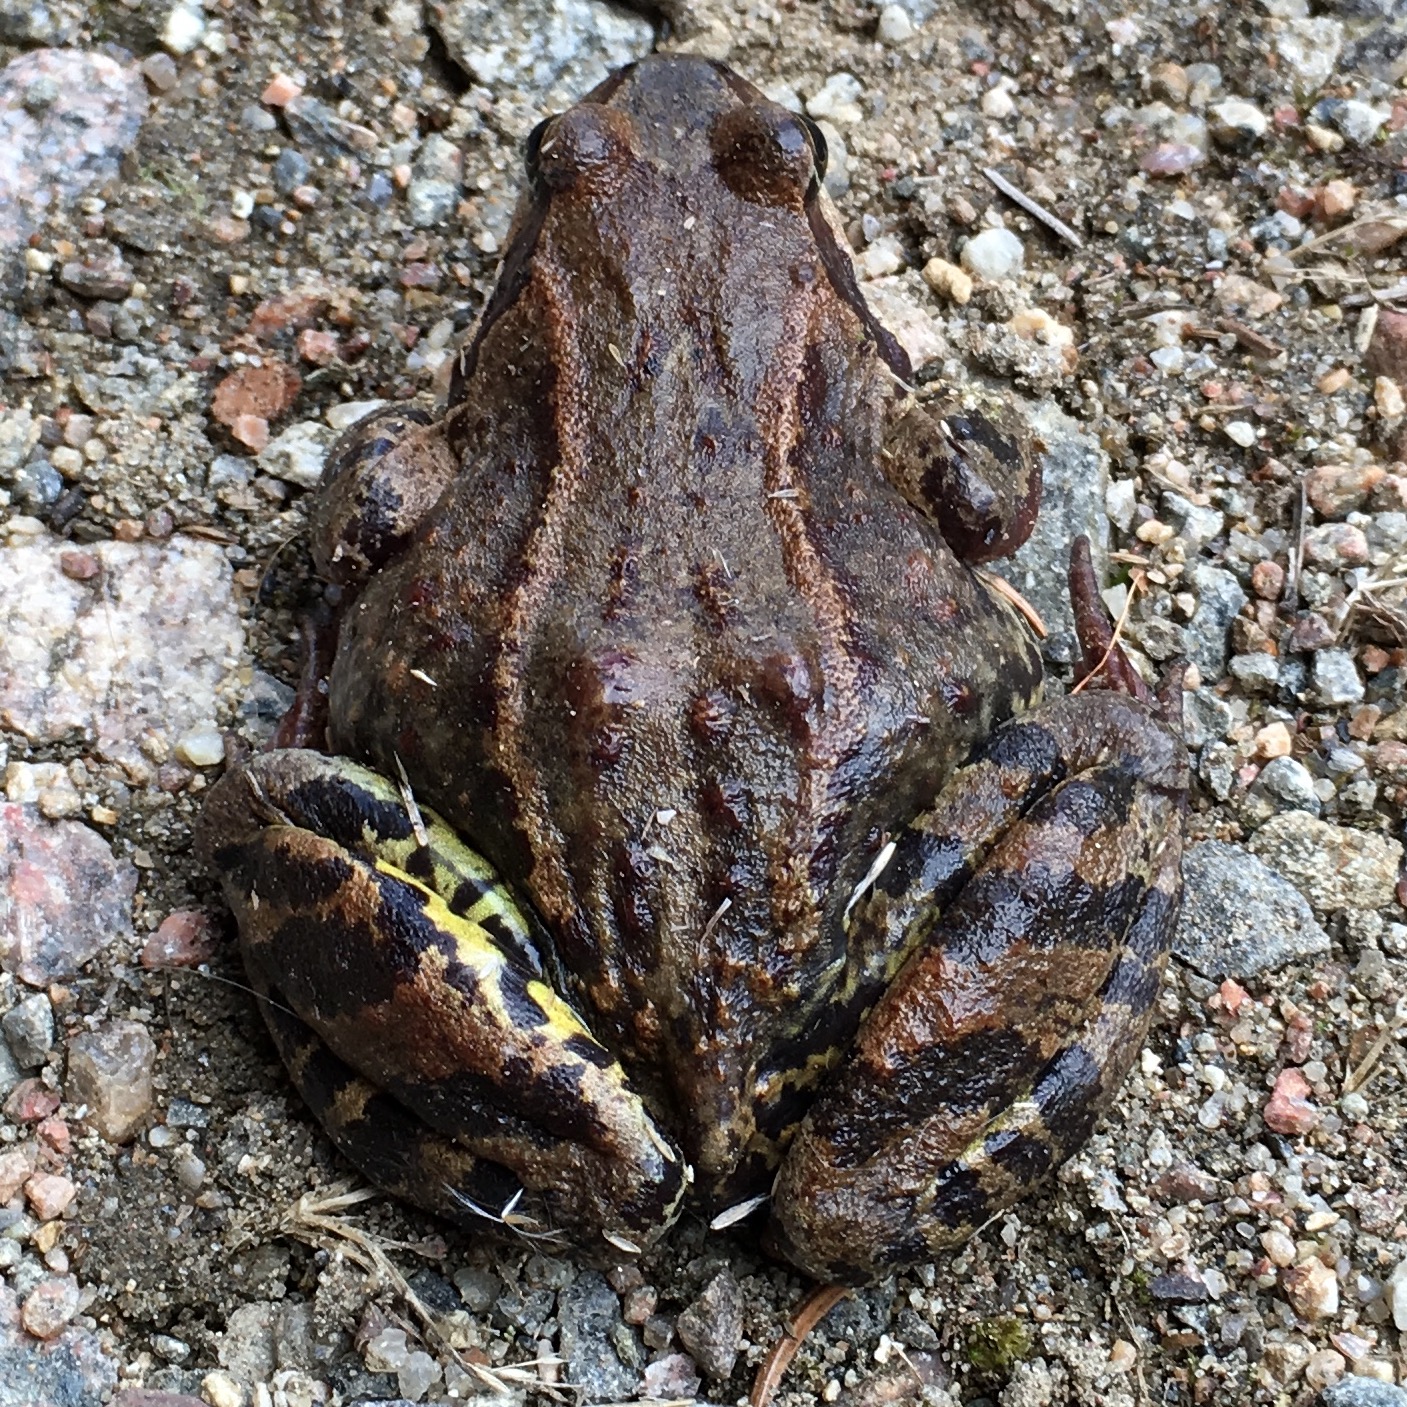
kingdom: Animalia
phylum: Chordata
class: Amphibia
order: Anura
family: Ranidae
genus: Rana
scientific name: Rana temporaria
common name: Common frog
